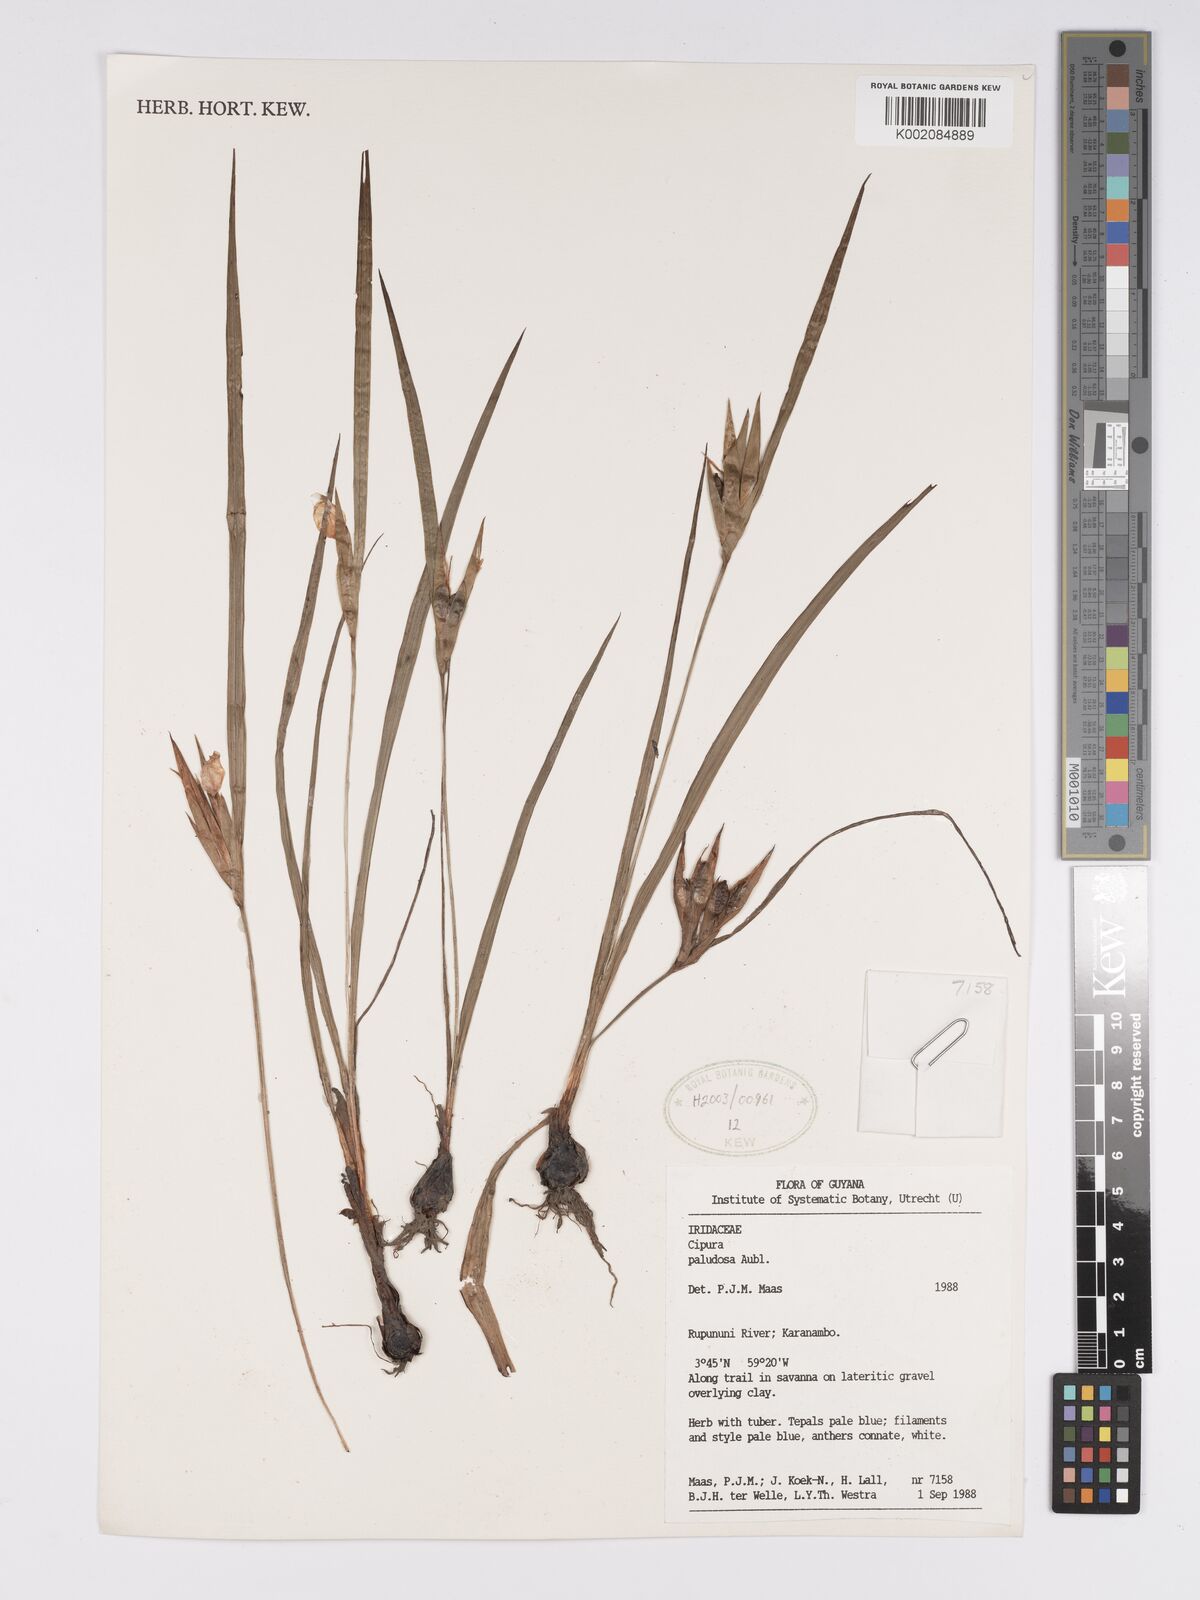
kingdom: Plantae
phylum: Tracheophyta
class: Liliopsida
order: Asparagales
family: Iridaceae
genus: Cipura
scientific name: Cipura paludosa
